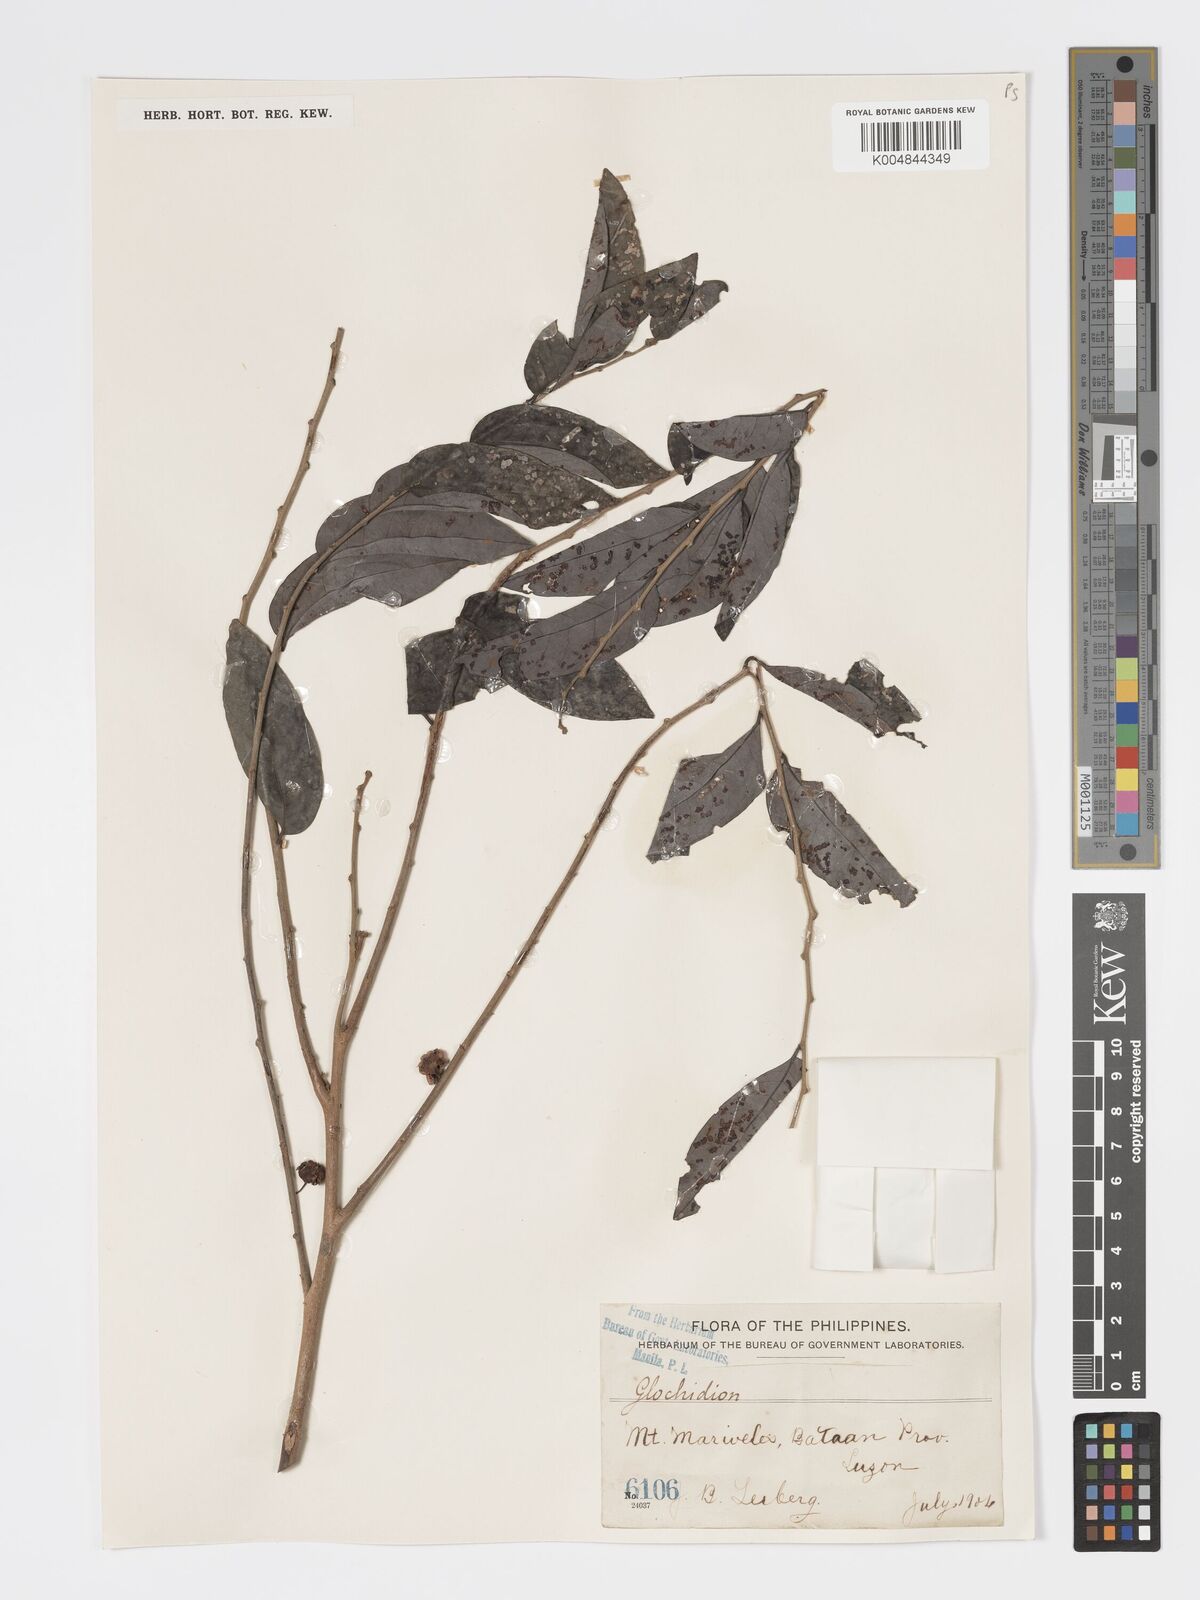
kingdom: Plantae
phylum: Tracheophyta
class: Magnoliopsida
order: Malpighiales
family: Phyllanthaceae
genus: Glochidion
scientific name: Glochidion triandrum
